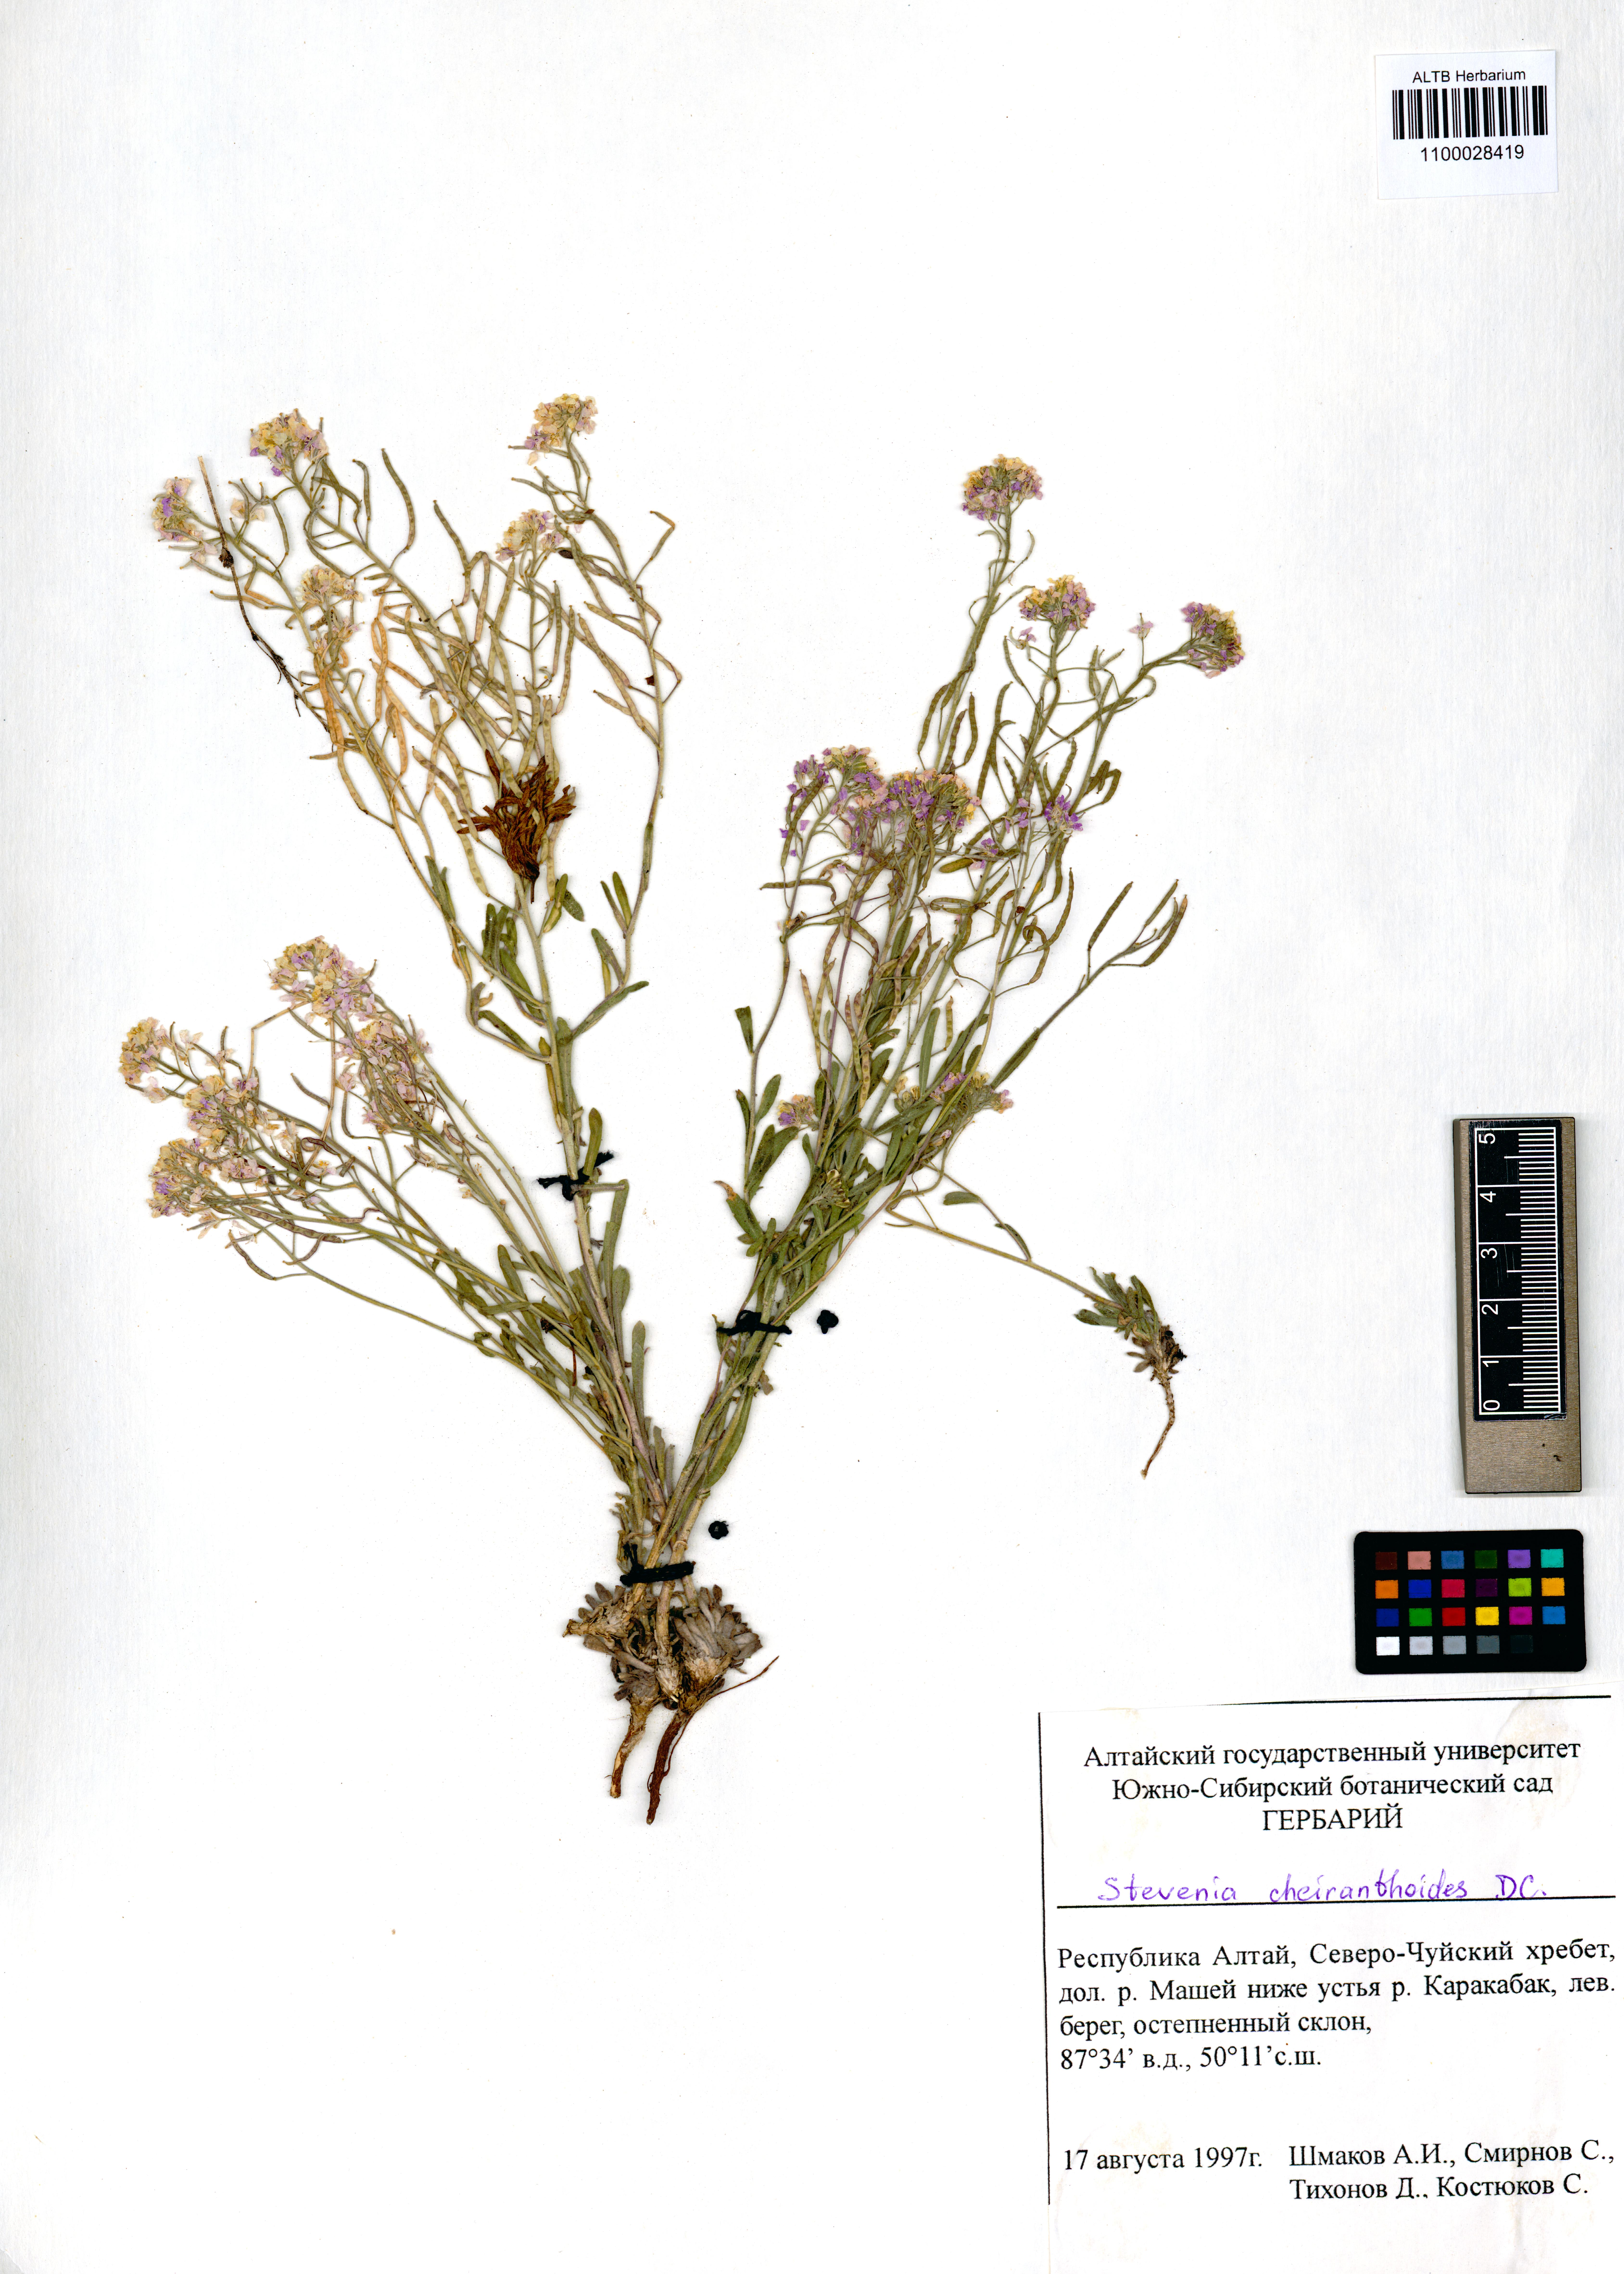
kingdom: Plantae
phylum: Tracheophyta
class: Magnoliopsida
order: Brassicales
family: Brassicaceae
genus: Stevenia
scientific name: Stevenia incarnata
